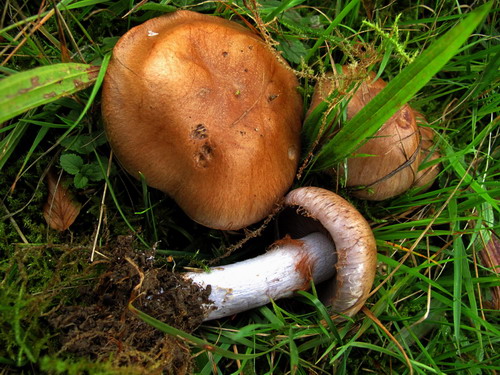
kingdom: Fungi
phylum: Basidiomycota
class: Agaricomycetes
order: Agaricales
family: Cortinariaceae
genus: Cortinarius
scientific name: Cortinarius largus
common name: violetrandet slørhat
